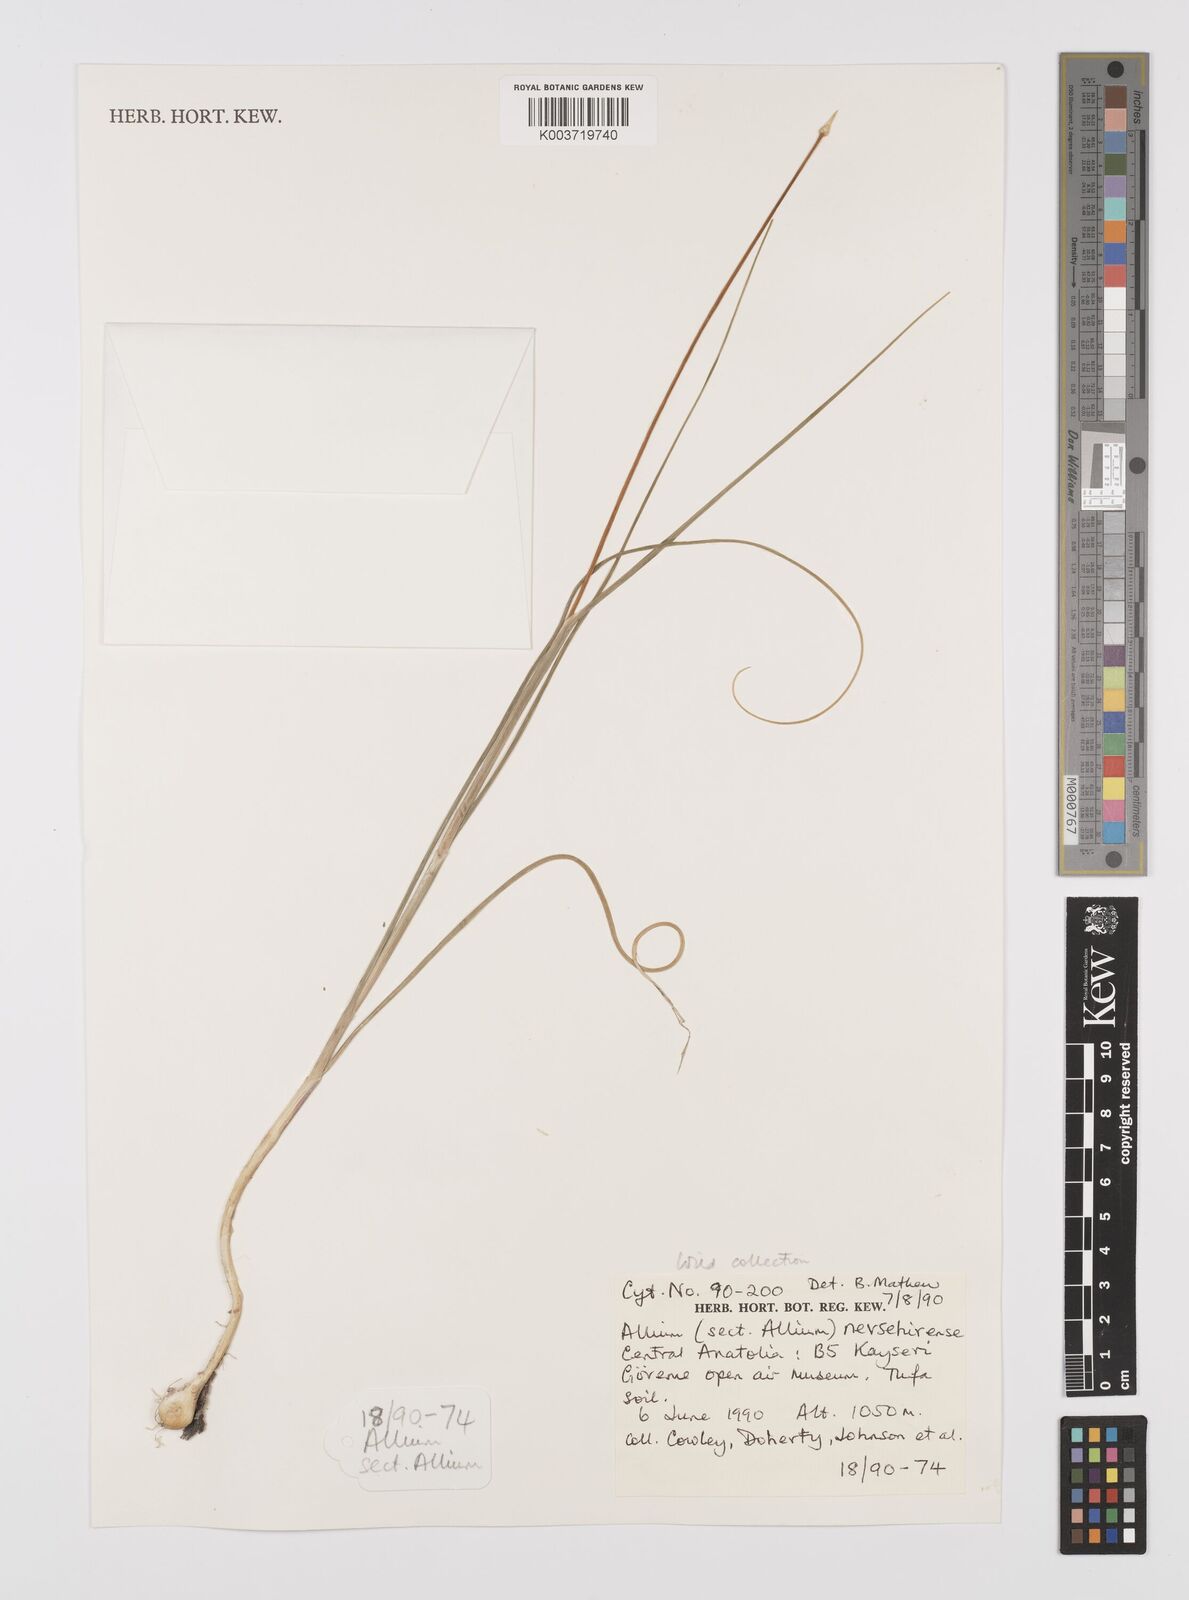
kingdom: Plantae
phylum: Tracheophyta
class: Liliopsida
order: Asparagales
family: Amaryllidaceae
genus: Allium
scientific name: Allium nevsehirense
